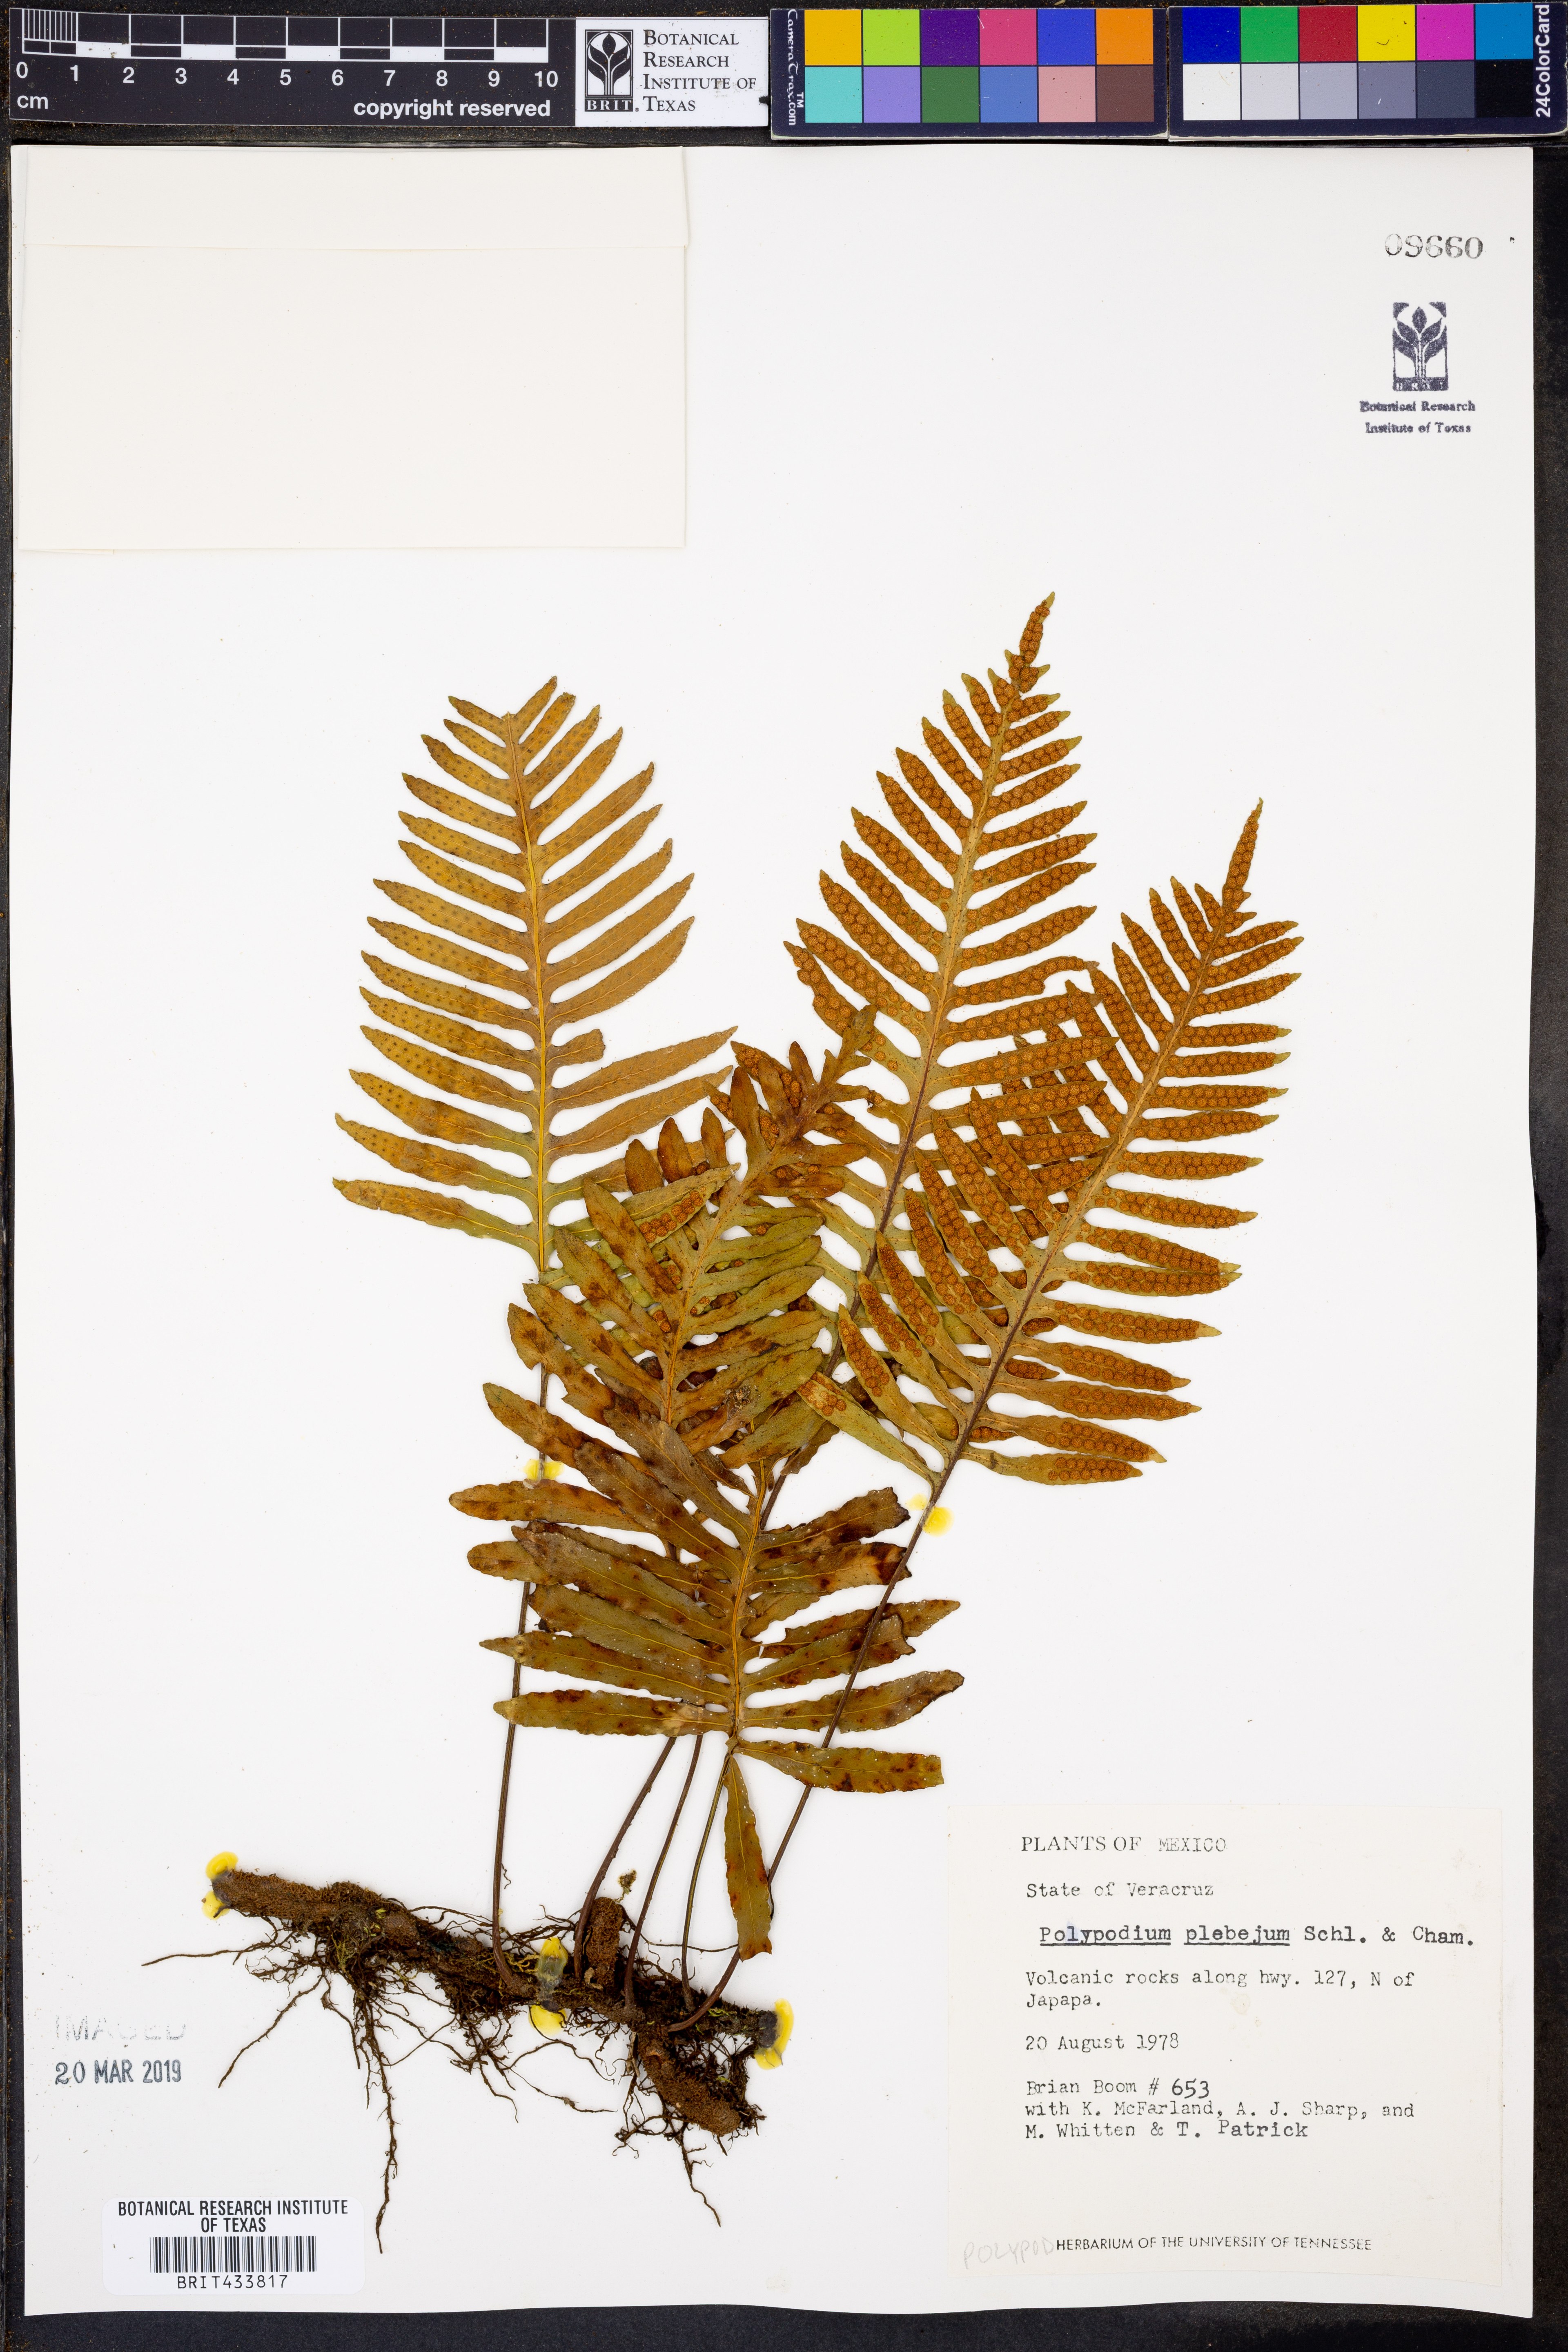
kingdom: Plantae
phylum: Tracheophyta
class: Polypodiopsida
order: Polypodiales
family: Polypodiaceae
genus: Pleopeltis
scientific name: Pleopeltis plebeia
